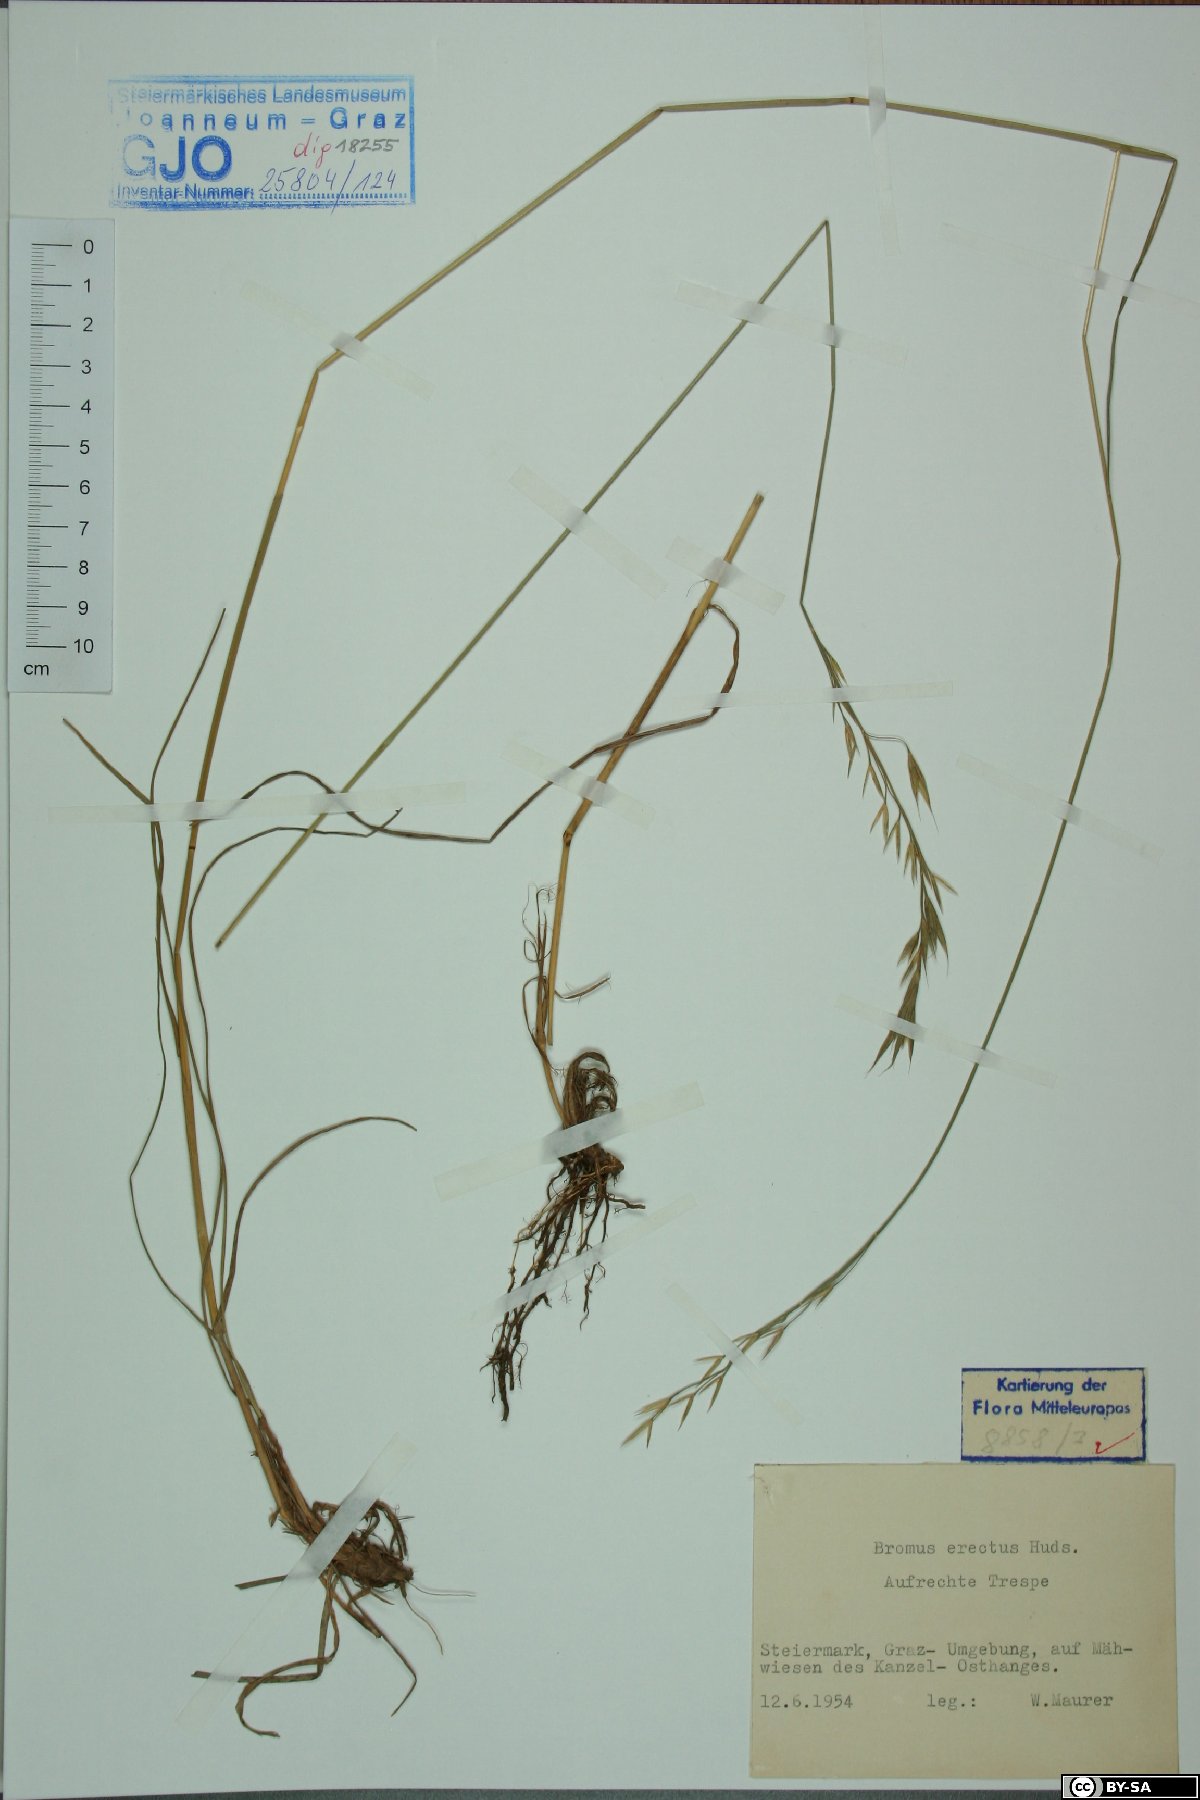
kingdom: Plantae
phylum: Tracheophyta
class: Liliopsida
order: Poales
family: Poaceae
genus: Bromus
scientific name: Bromus erectus
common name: Erect brome
